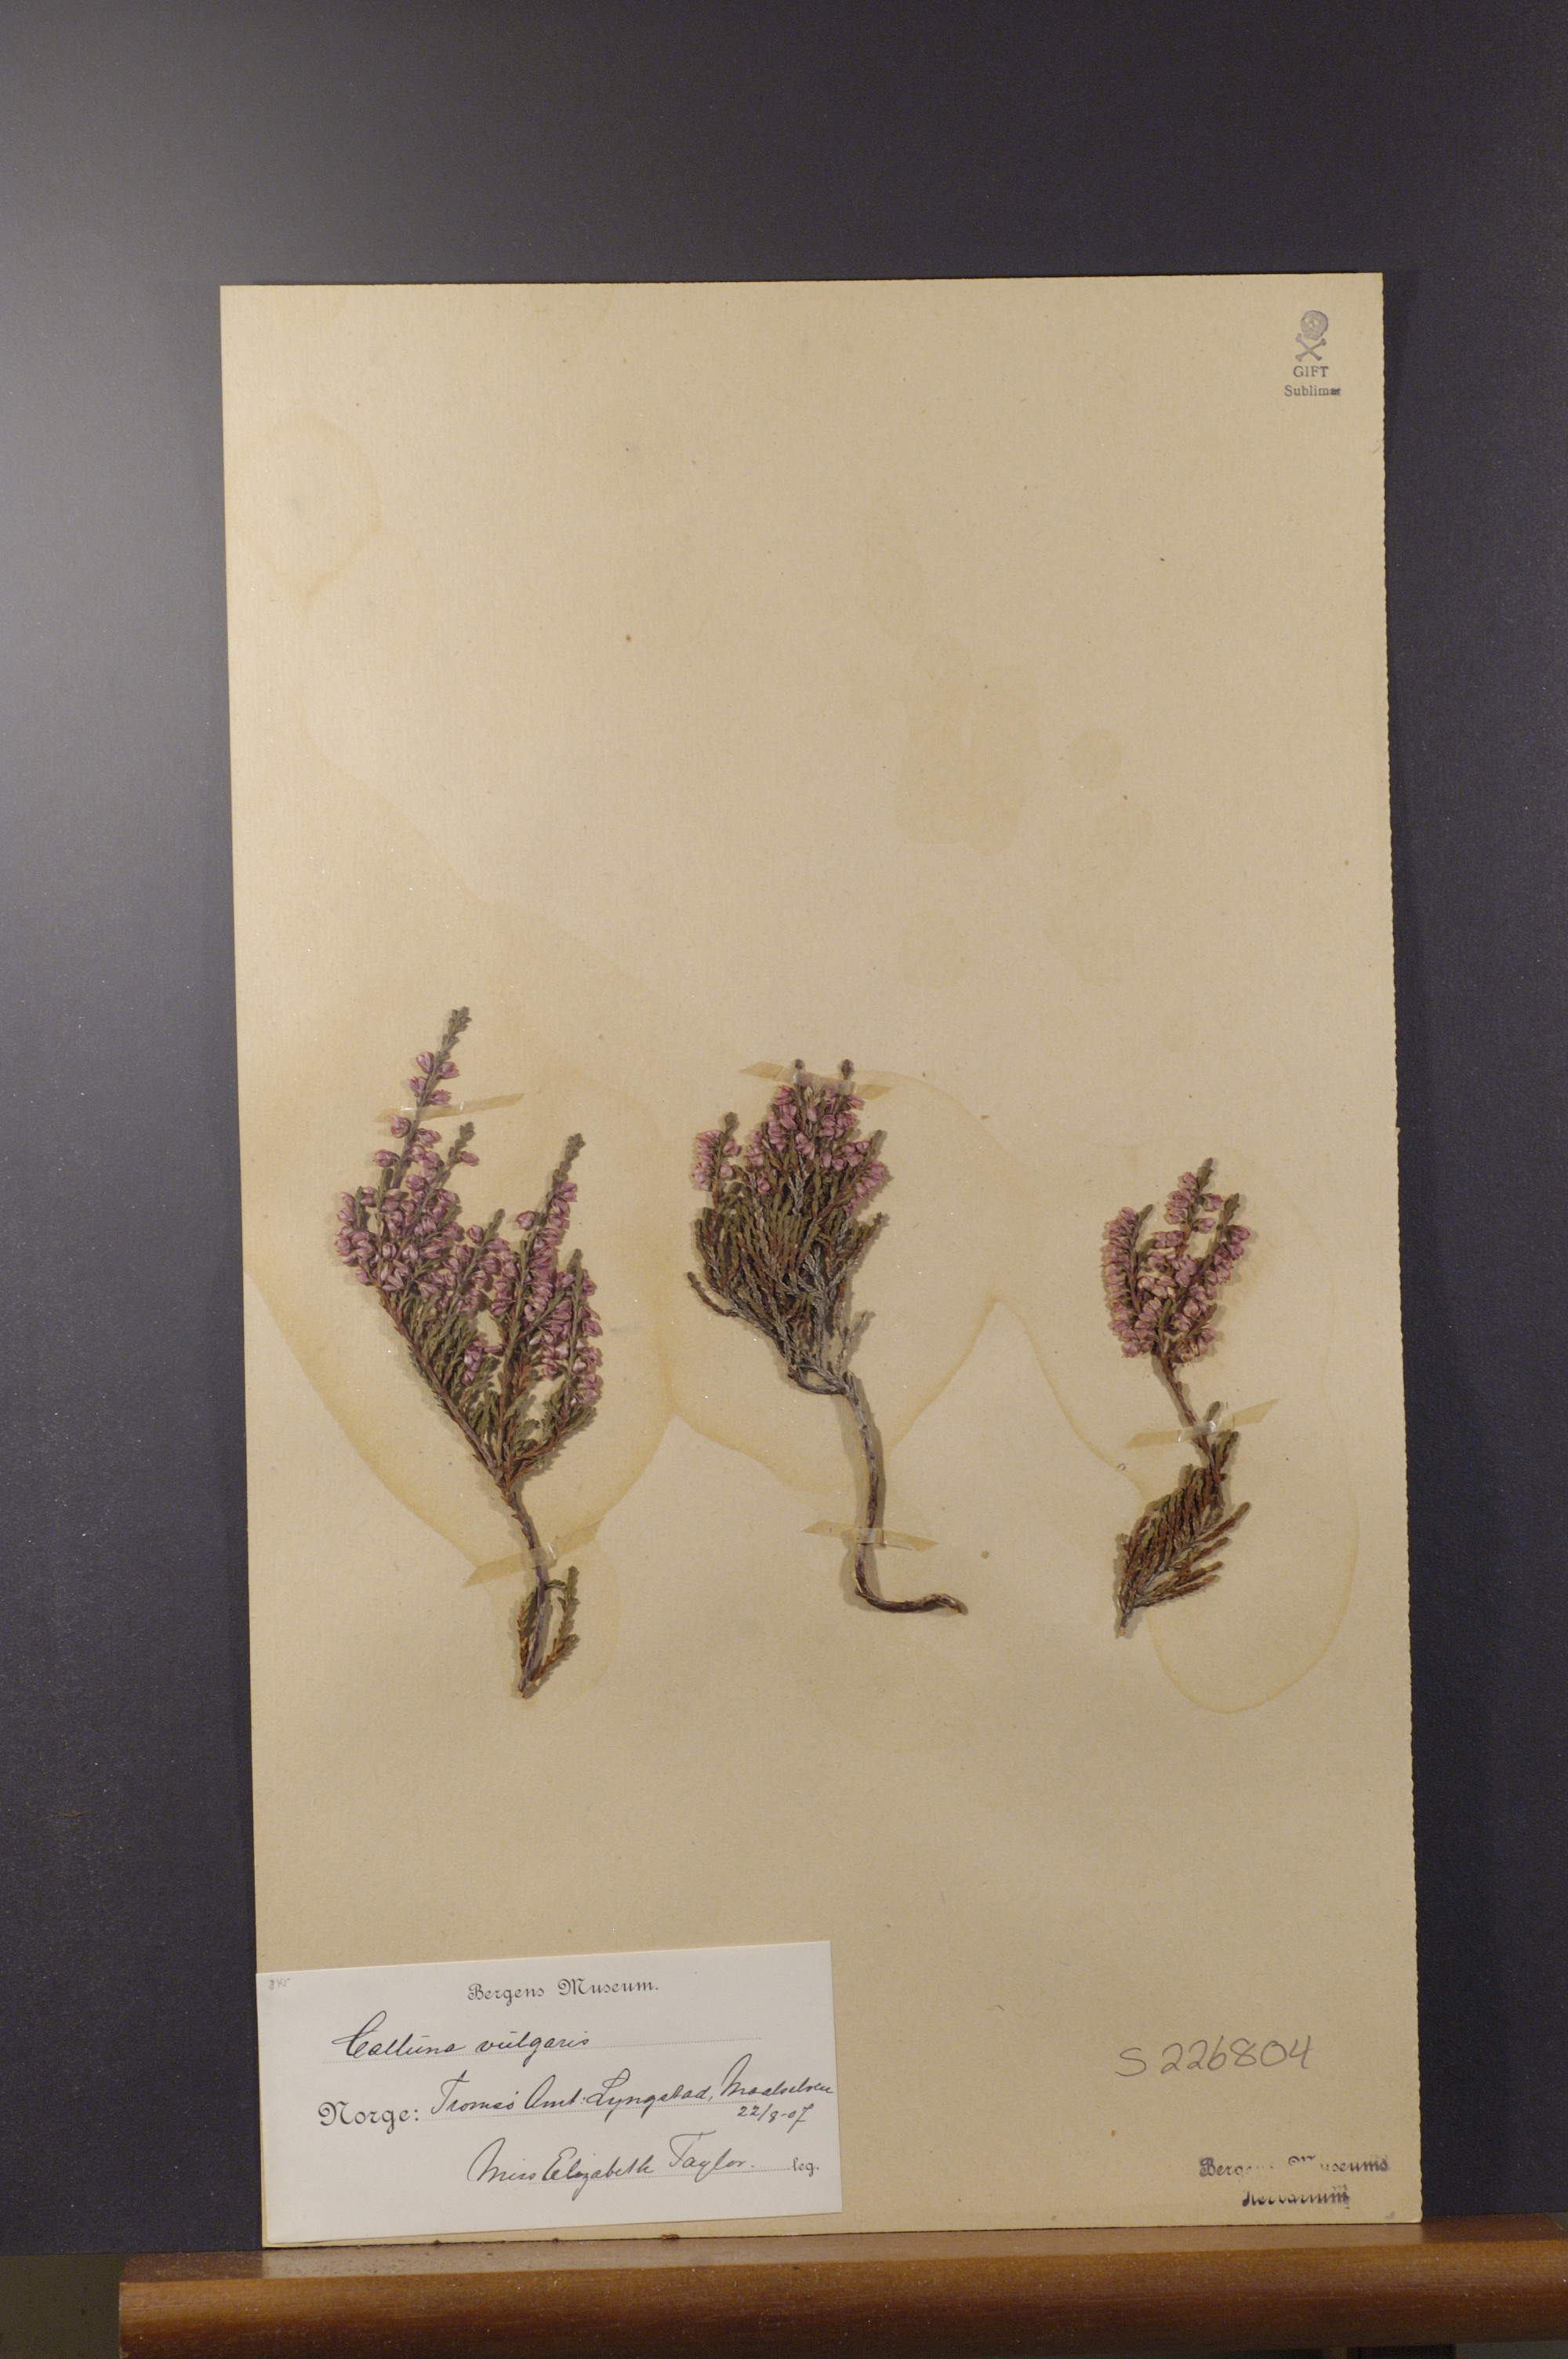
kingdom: Plantae
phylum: Tracheophyta
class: Magnoliopsida
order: Ericales
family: Ericaceae
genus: Calluna
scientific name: Calluna vulgaris
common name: Heather
